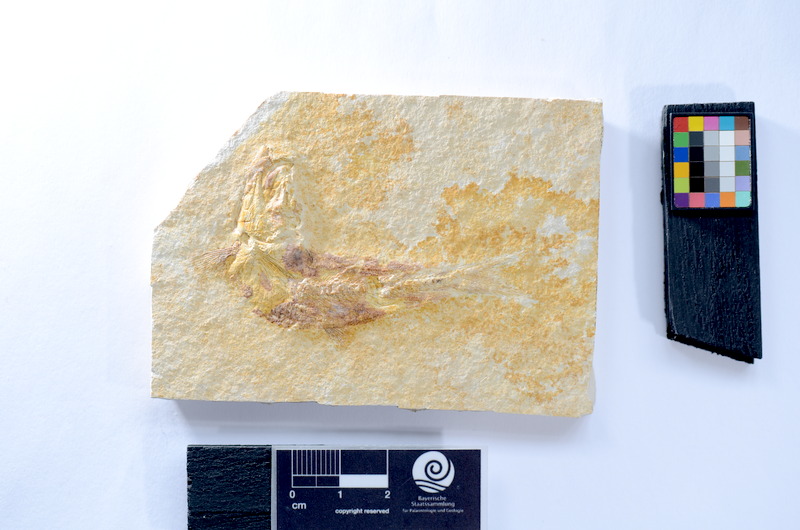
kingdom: Animalia
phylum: Chordata
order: Salmoniformes
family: Orthogonikleithridae
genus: Leptolepides
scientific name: Leptolepides
